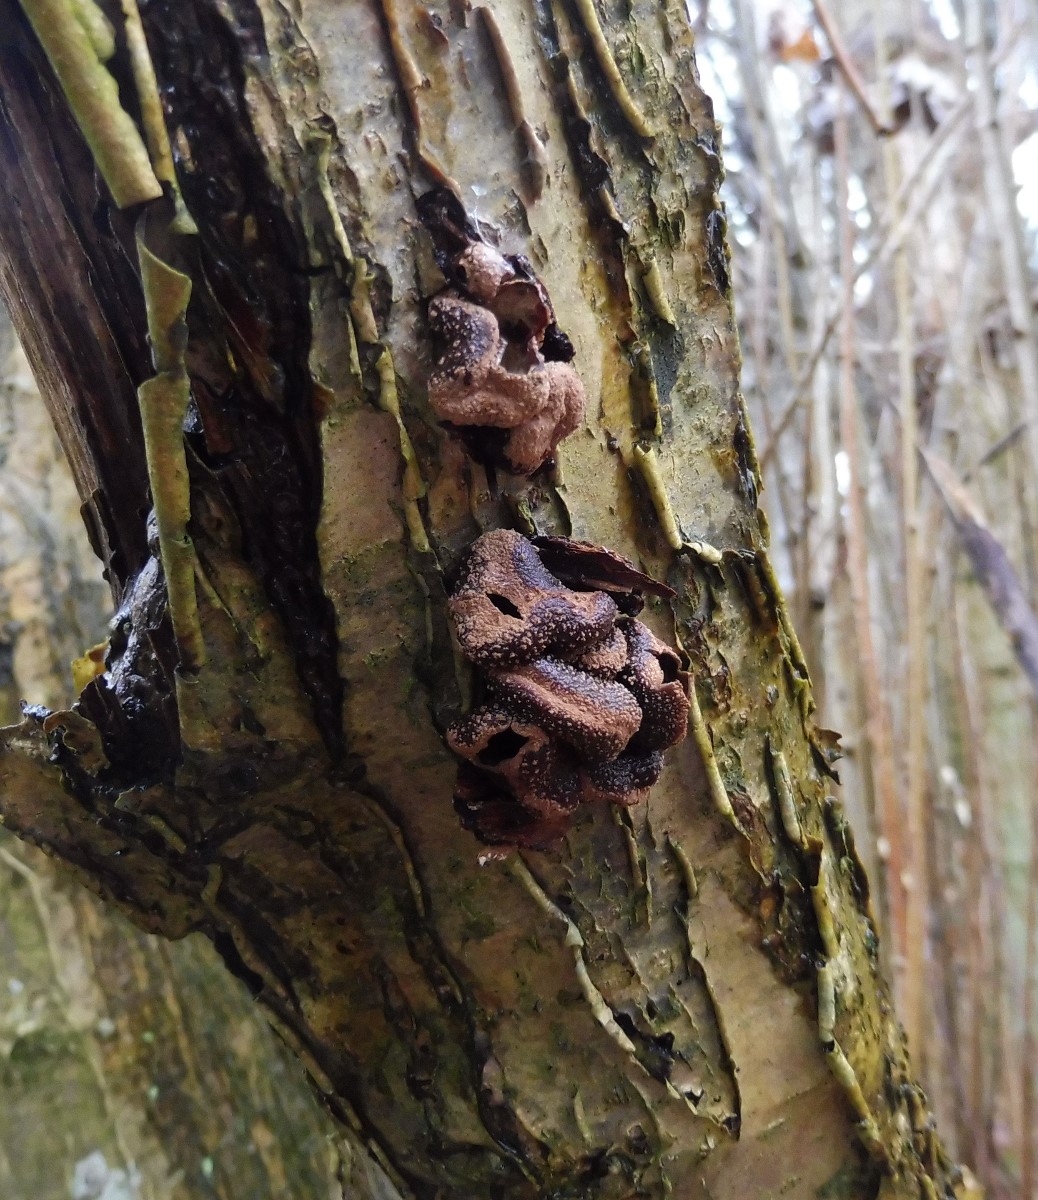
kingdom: Fungi
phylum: Ascomycota
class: Leotiomycetes
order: Helotiales
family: Cenangiaceae
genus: Encoelia
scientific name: Encoelia furfuracea
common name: hassel-læderskive
